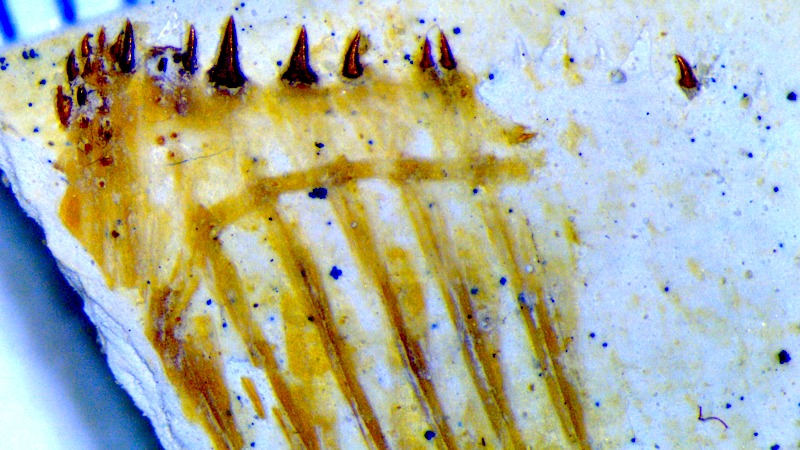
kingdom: Animalia
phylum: Chordata
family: Pycnodontes
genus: Macromesodon
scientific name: Macromesodon
